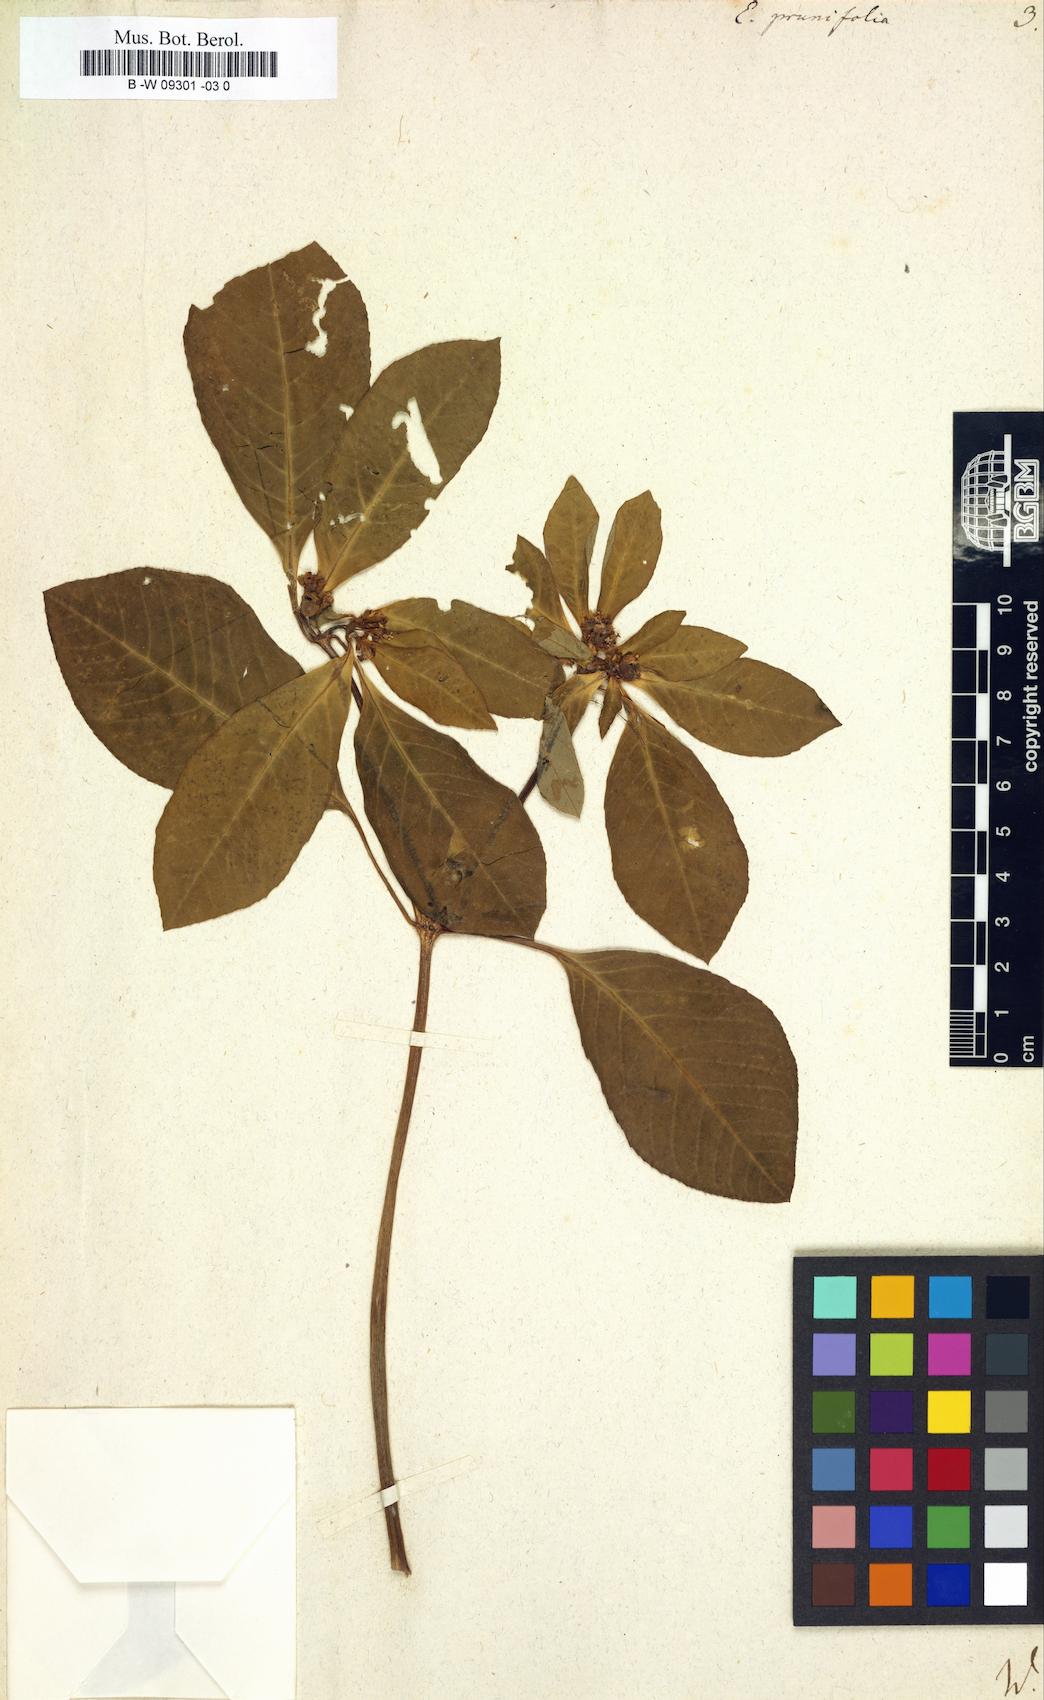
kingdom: Plantae
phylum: Tracheophyta
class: Magnoliopsida
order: Malpighiales
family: Euphorbiaceae
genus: Euphorbia
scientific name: Euphorbia heterophylla
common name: Mexican fireplant
